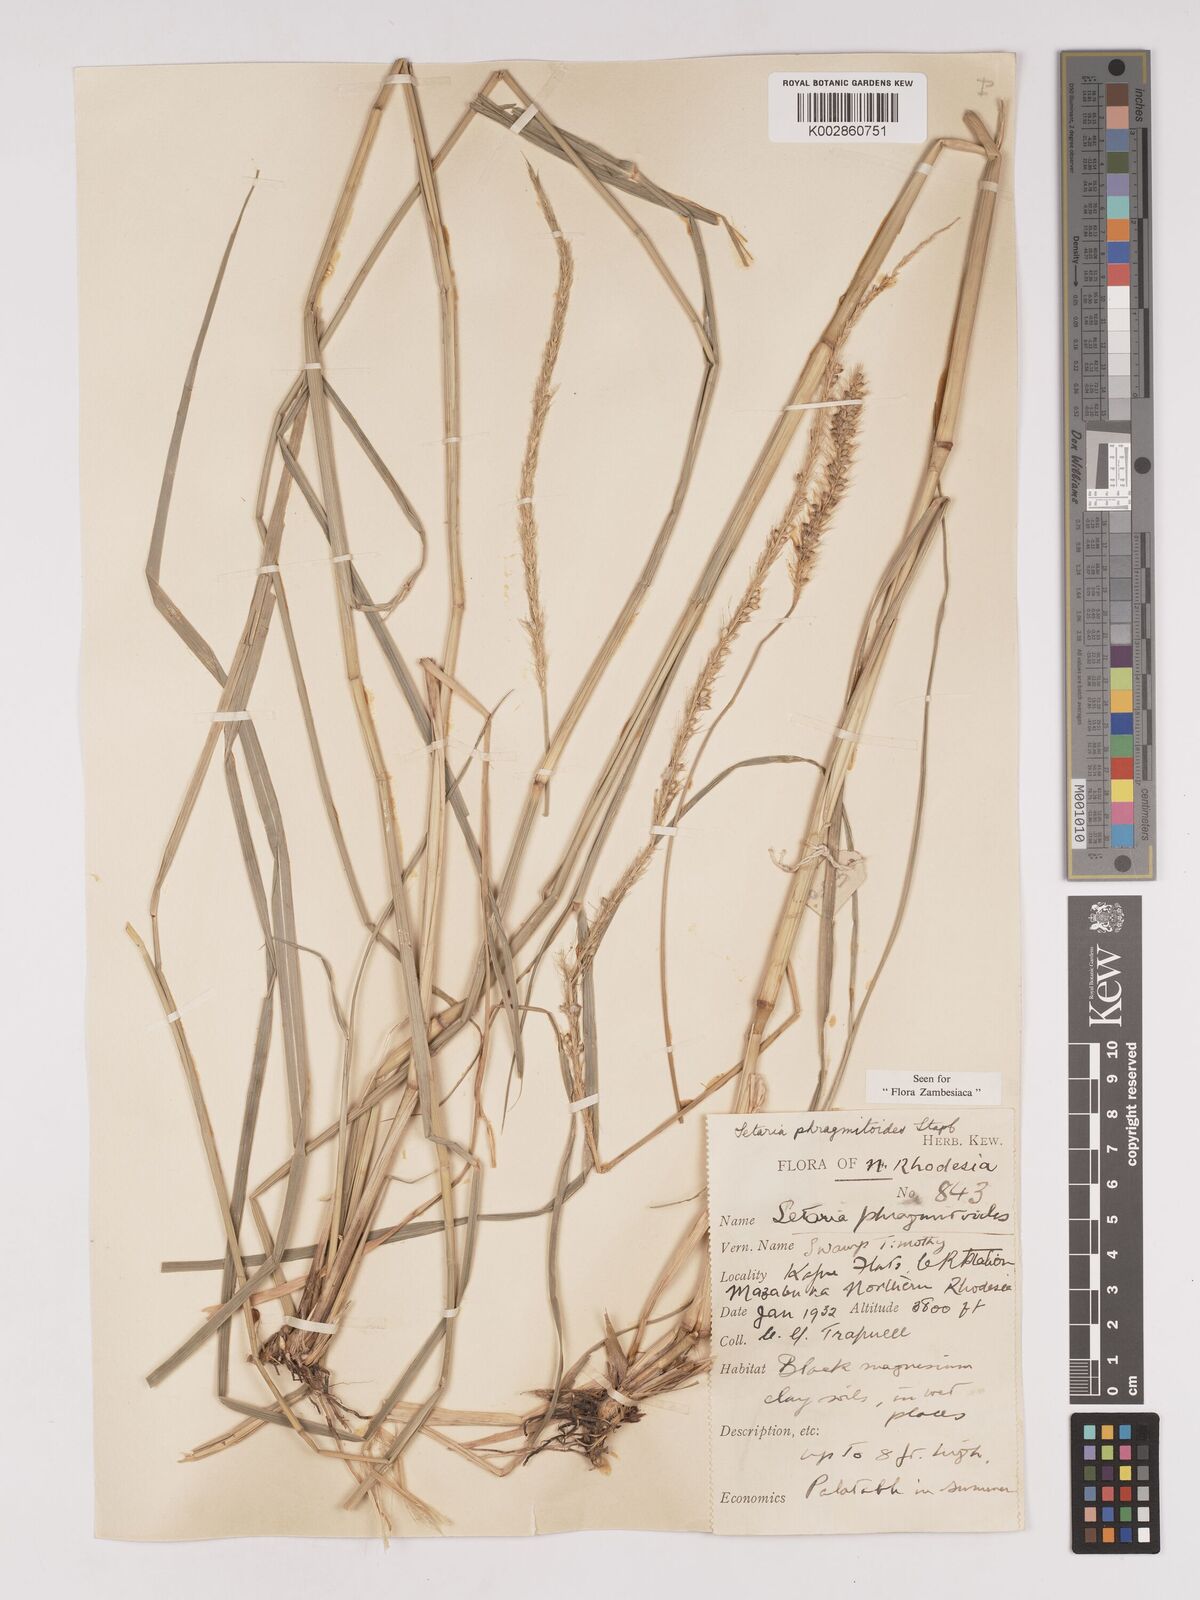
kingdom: Plantae
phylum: Tracheophyta
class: Liliopsida
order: Poales
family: Poaceae
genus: Setaria
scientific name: Setaria incrassata
